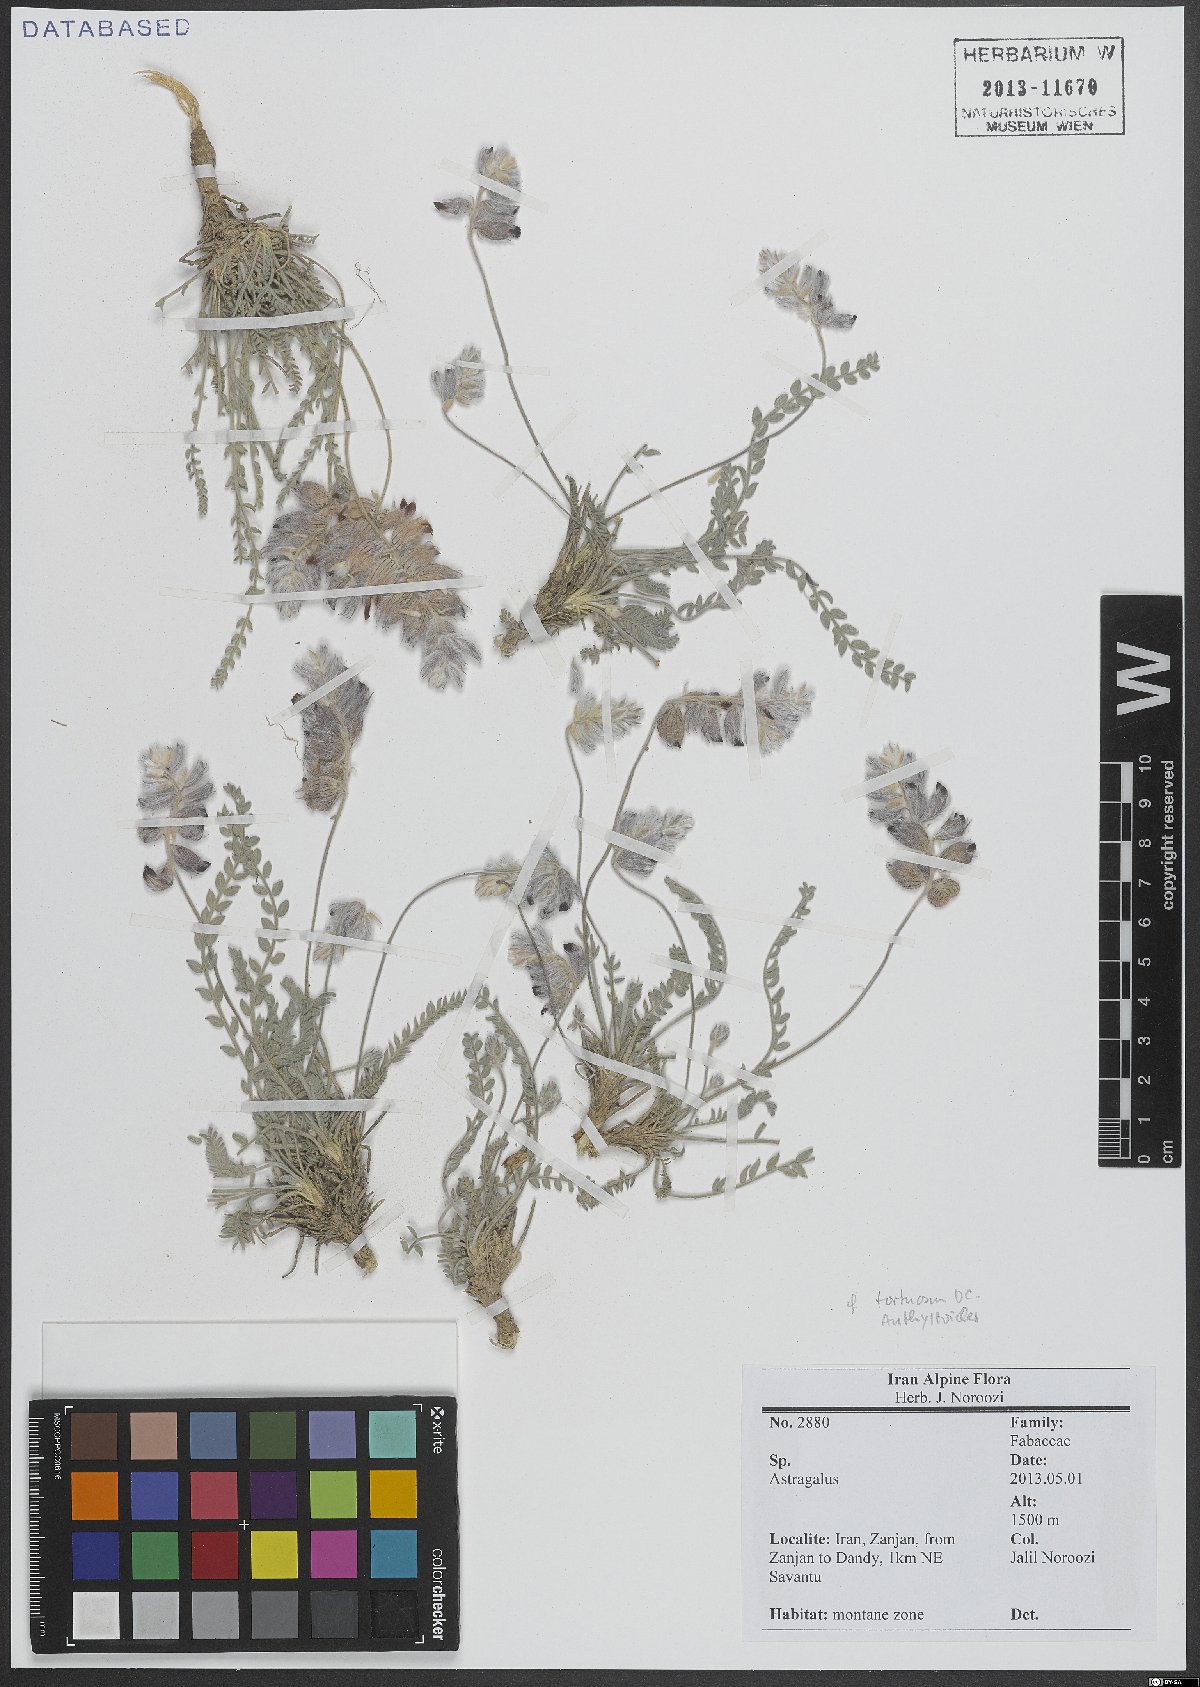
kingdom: Plantae
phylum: Tracheophyta
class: Magnoliopsida
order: Fabales
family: Fabaceae
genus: Astragalus
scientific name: Astragalus
